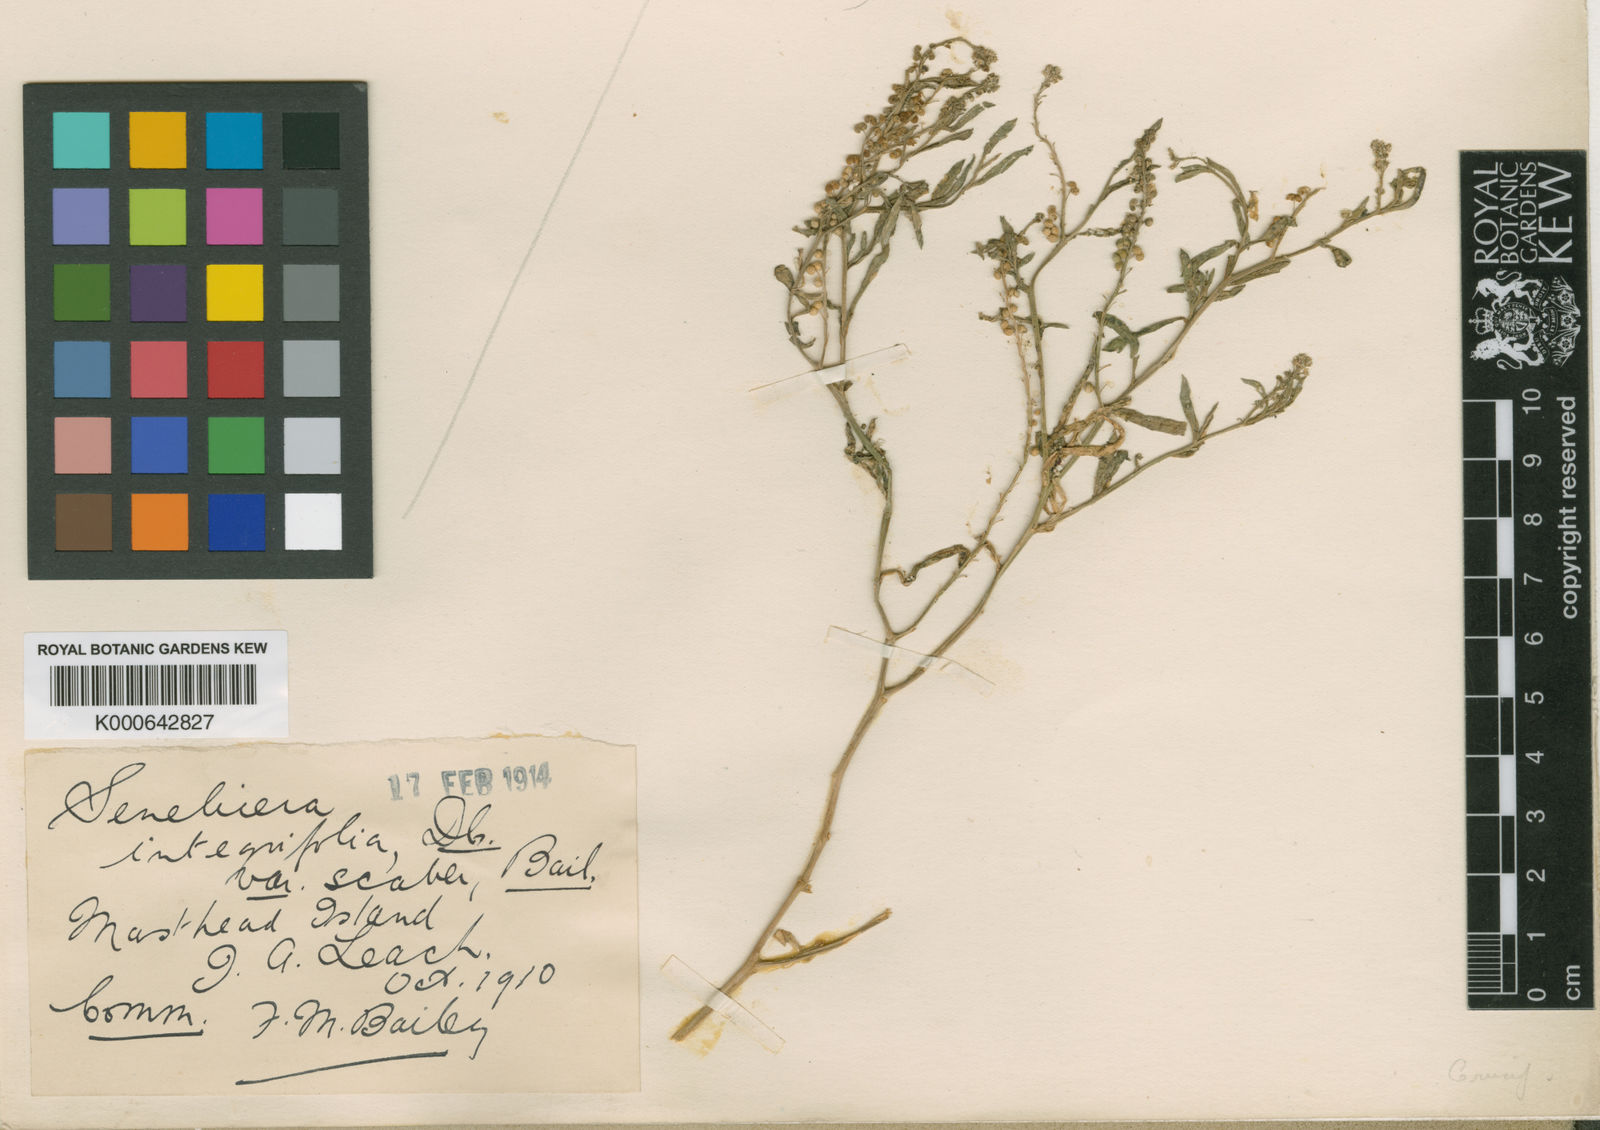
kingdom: Plantae
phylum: Tracheophyta
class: Magnoliopsida
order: Brassicales
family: Brassicaceae
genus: Lepidium
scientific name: Lepidium englerianum
